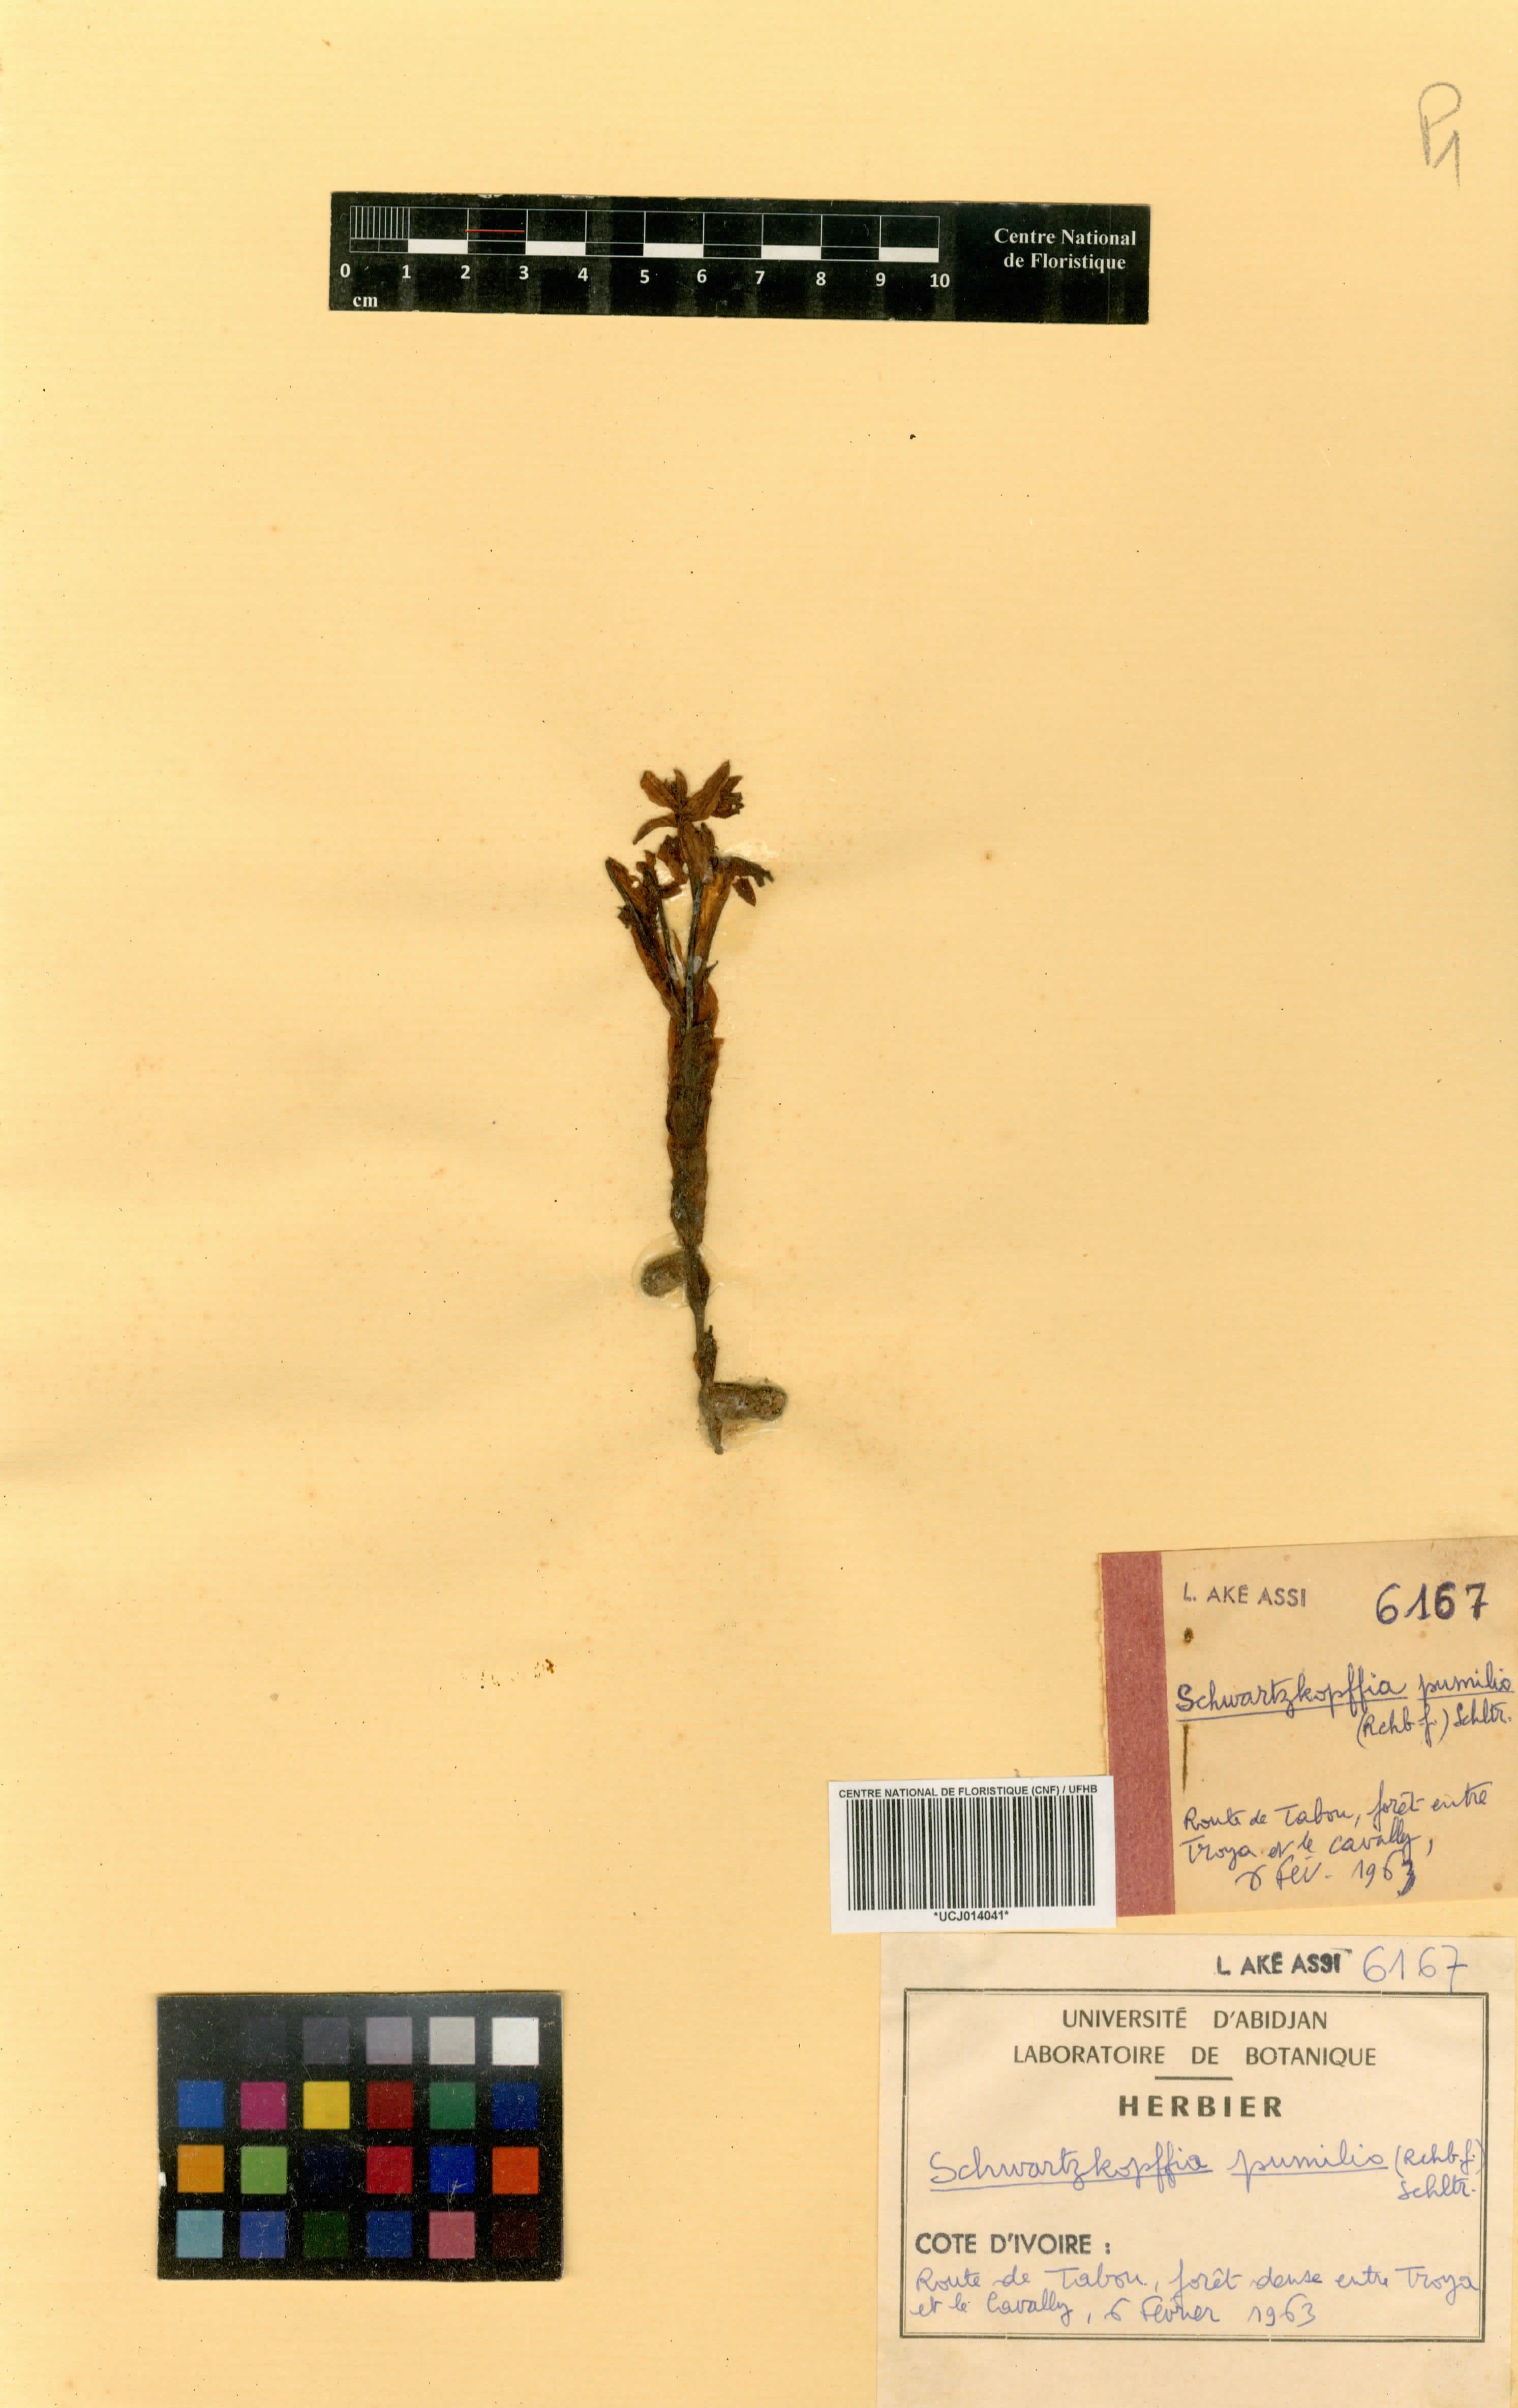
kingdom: Plantae
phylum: Tracheophyta
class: Liliopsida
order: Asparagales
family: Orchidaceae
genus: Brachycorythis
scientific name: Brachycorythis pumilio
